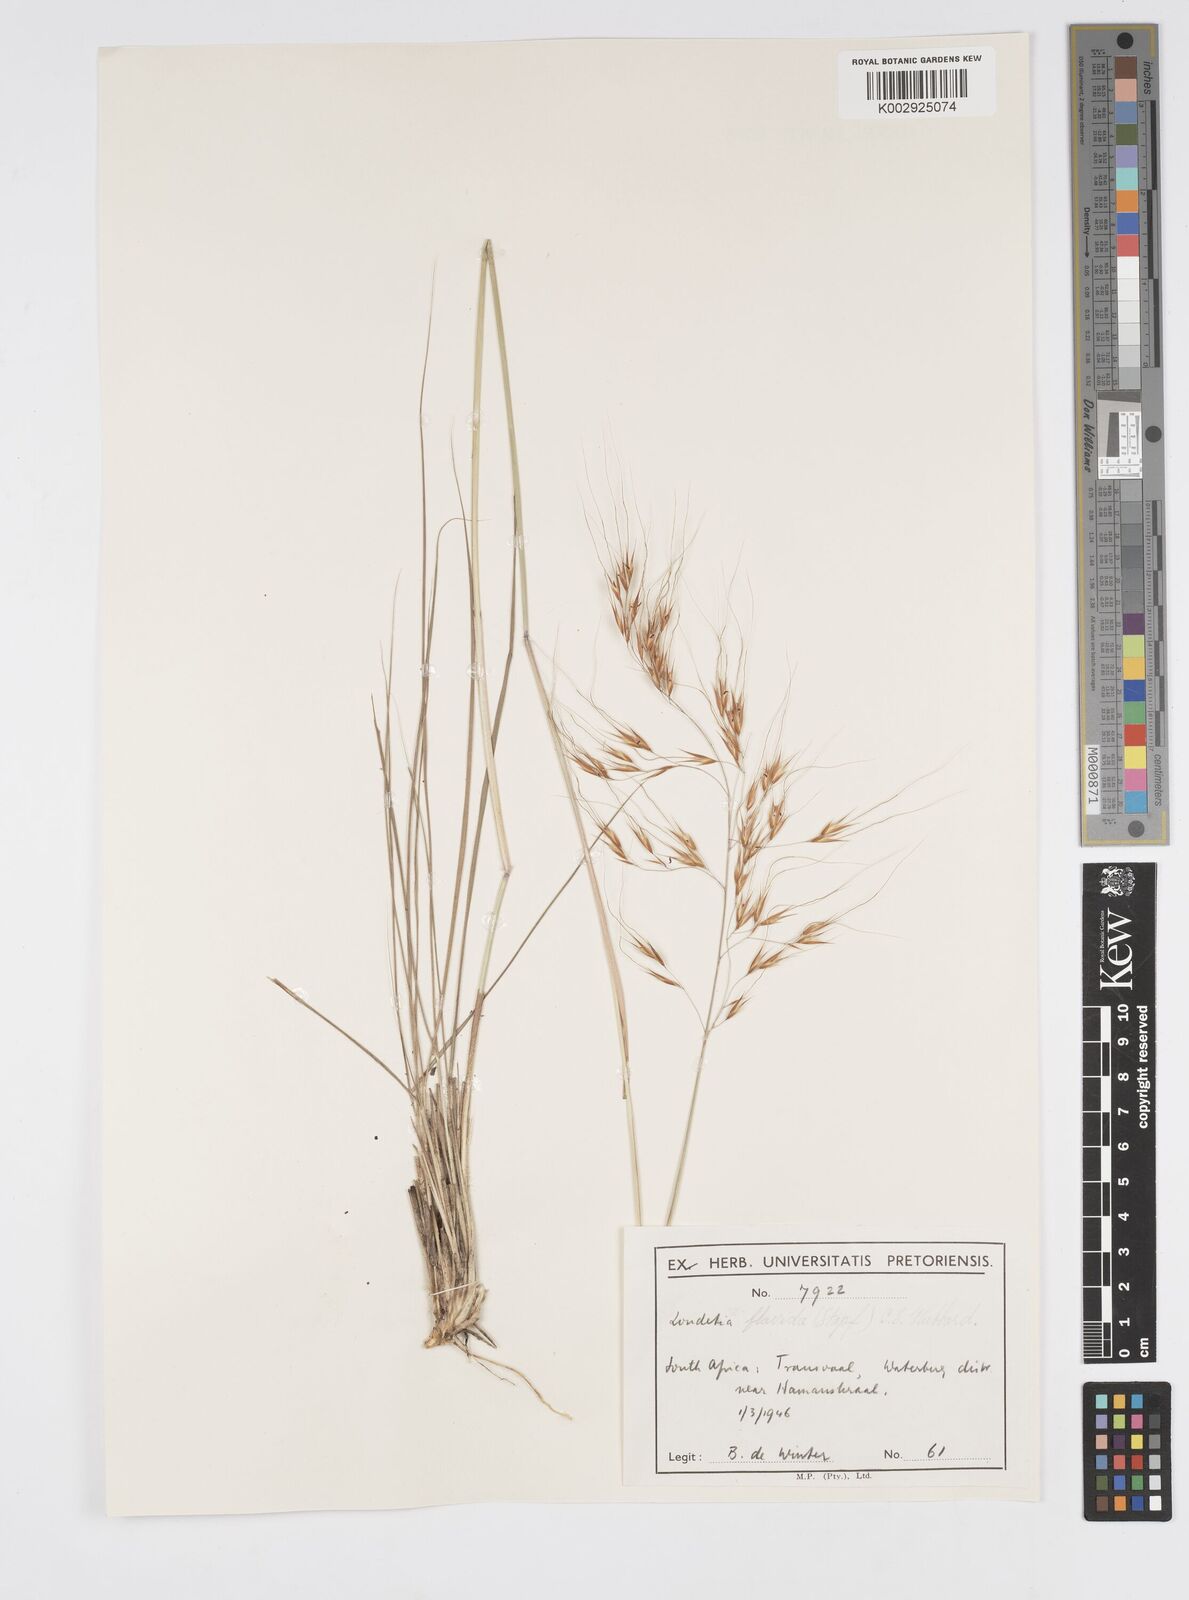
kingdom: Plantae
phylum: Tracheophyta
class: Liliopsida
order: Poales
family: Poaceae
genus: Loudetia
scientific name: Loudetia flavida
